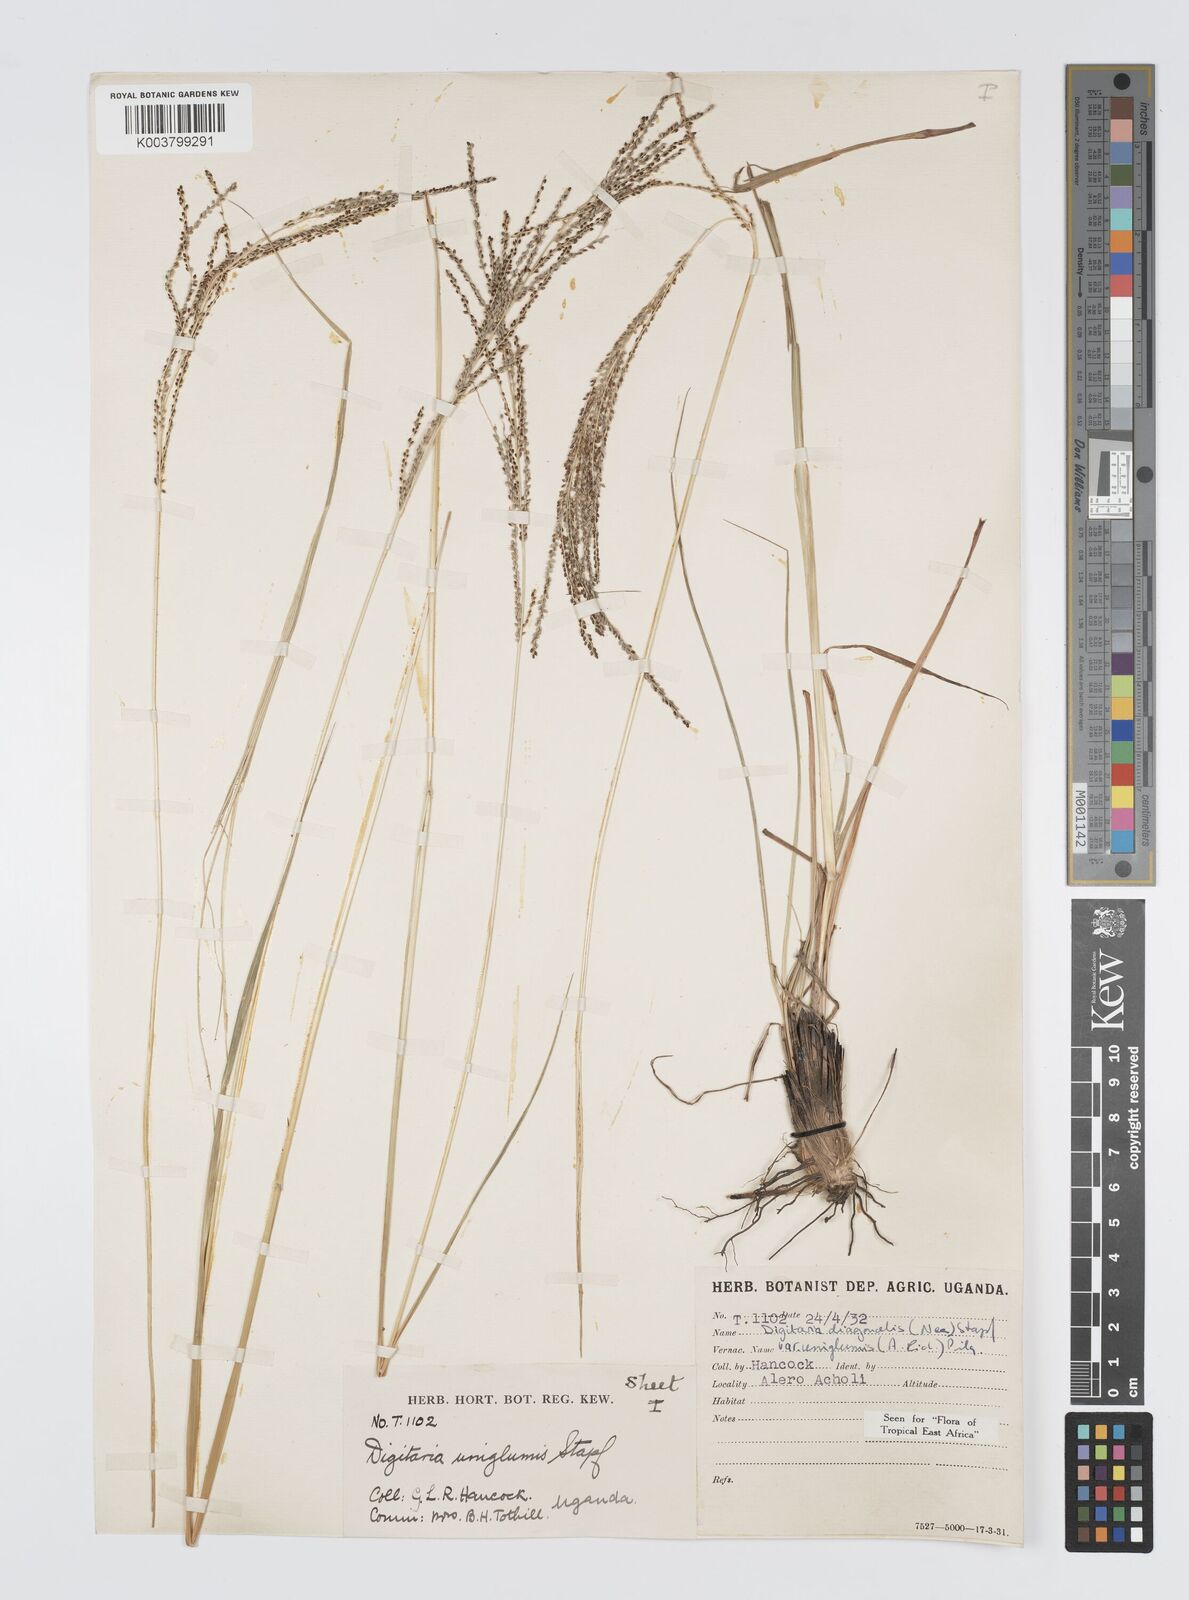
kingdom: Plantae
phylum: Tracheophyta
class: Liliopsida
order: Poales
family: Poaceae
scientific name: Poaceae
